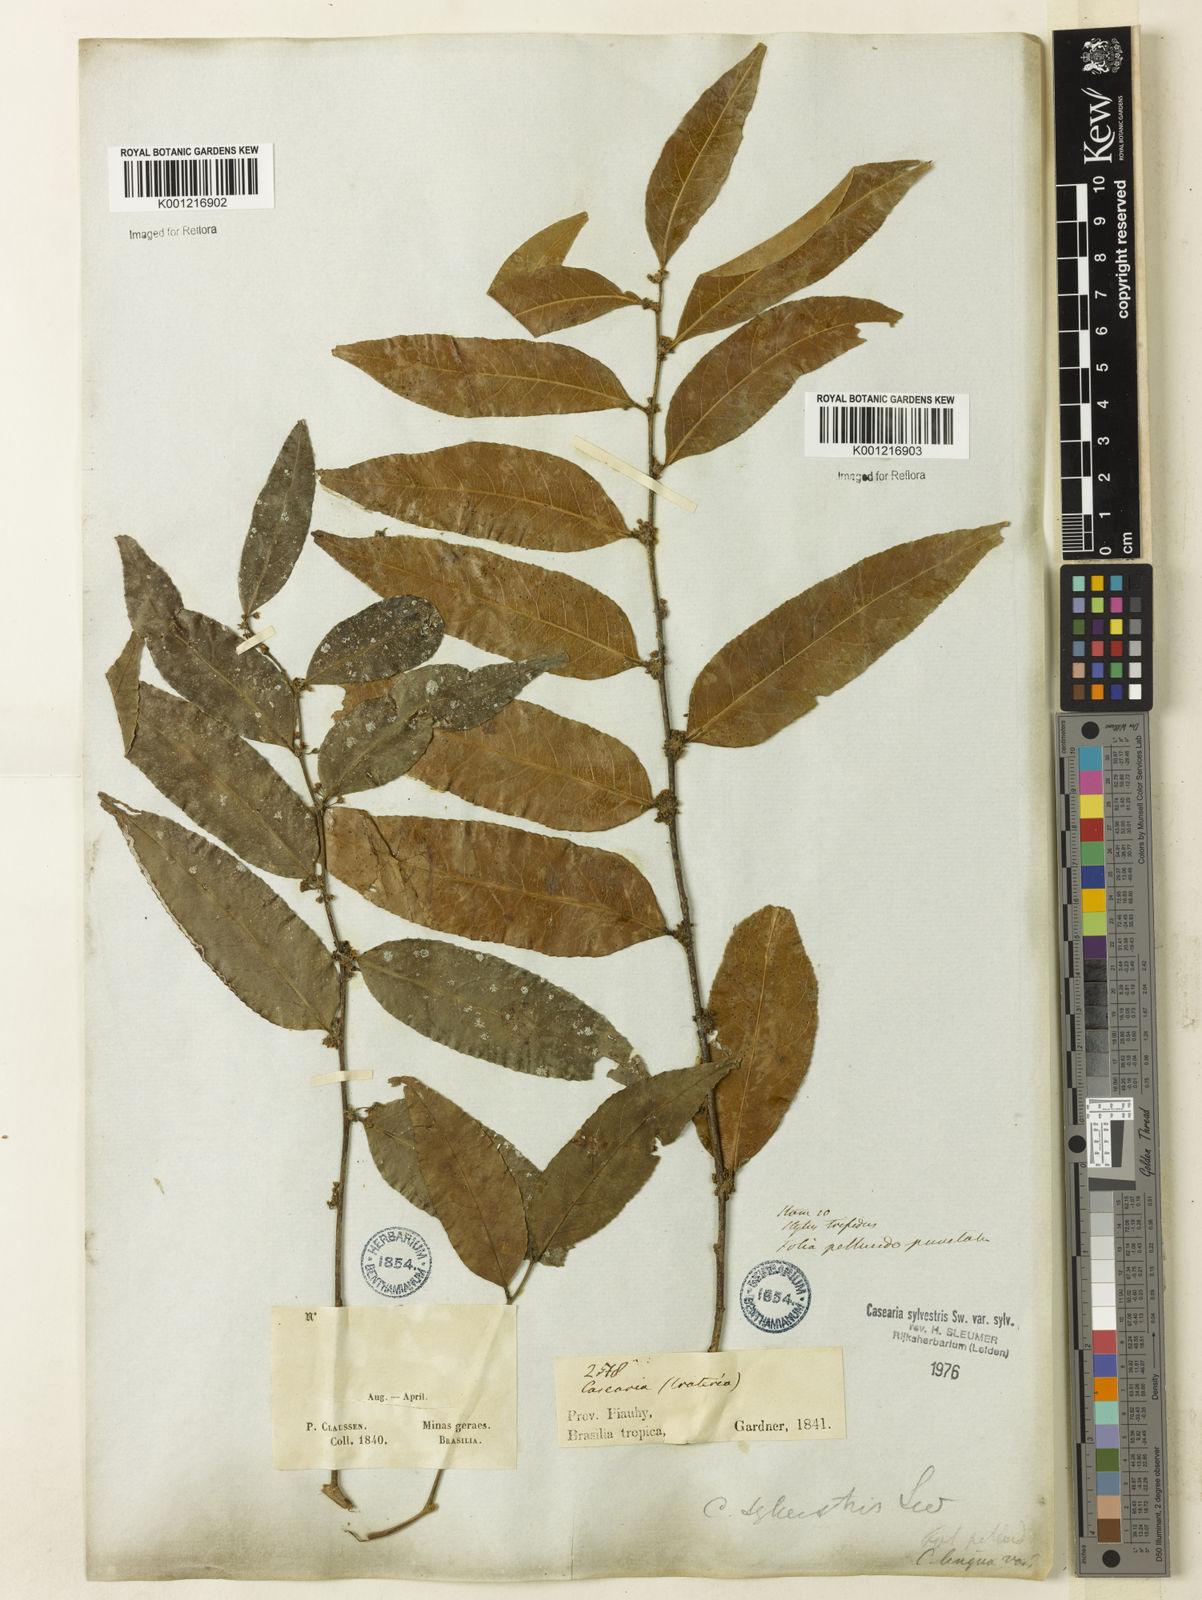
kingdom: Plantae
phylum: Tracheophyta
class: Magnoliopsida
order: Malpighiales
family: Salicaceae
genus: Casearia
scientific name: Casearia sylvestris
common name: Wild sage
